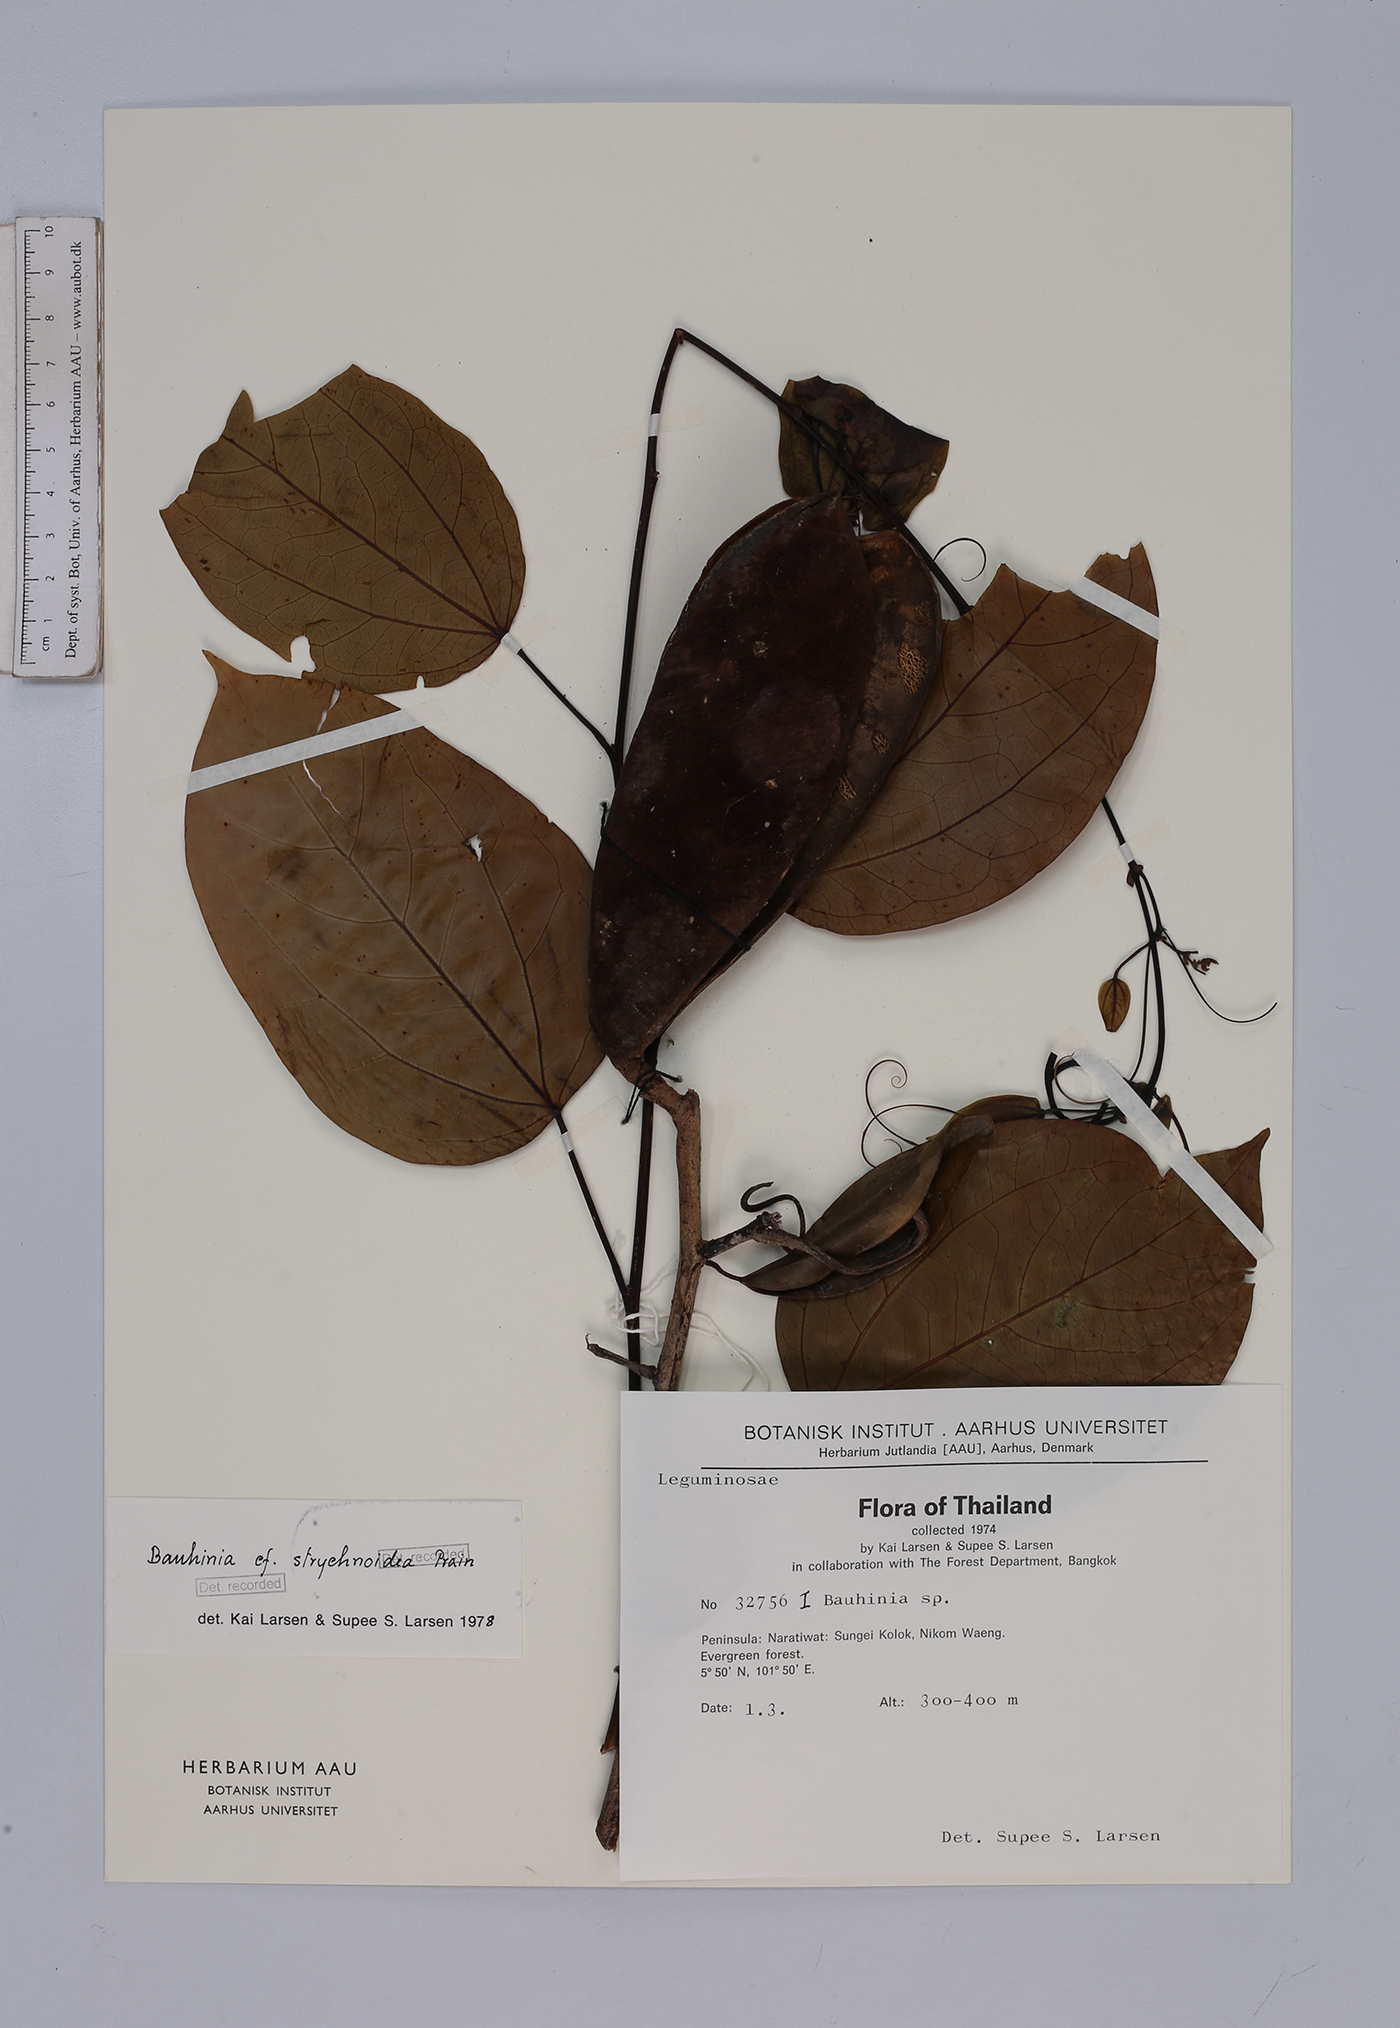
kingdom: Plantae
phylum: Tracheophyta
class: Magnoliopsida
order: Fabales
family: Fabaceae
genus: Phanera
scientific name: Phanera strychnoidea
